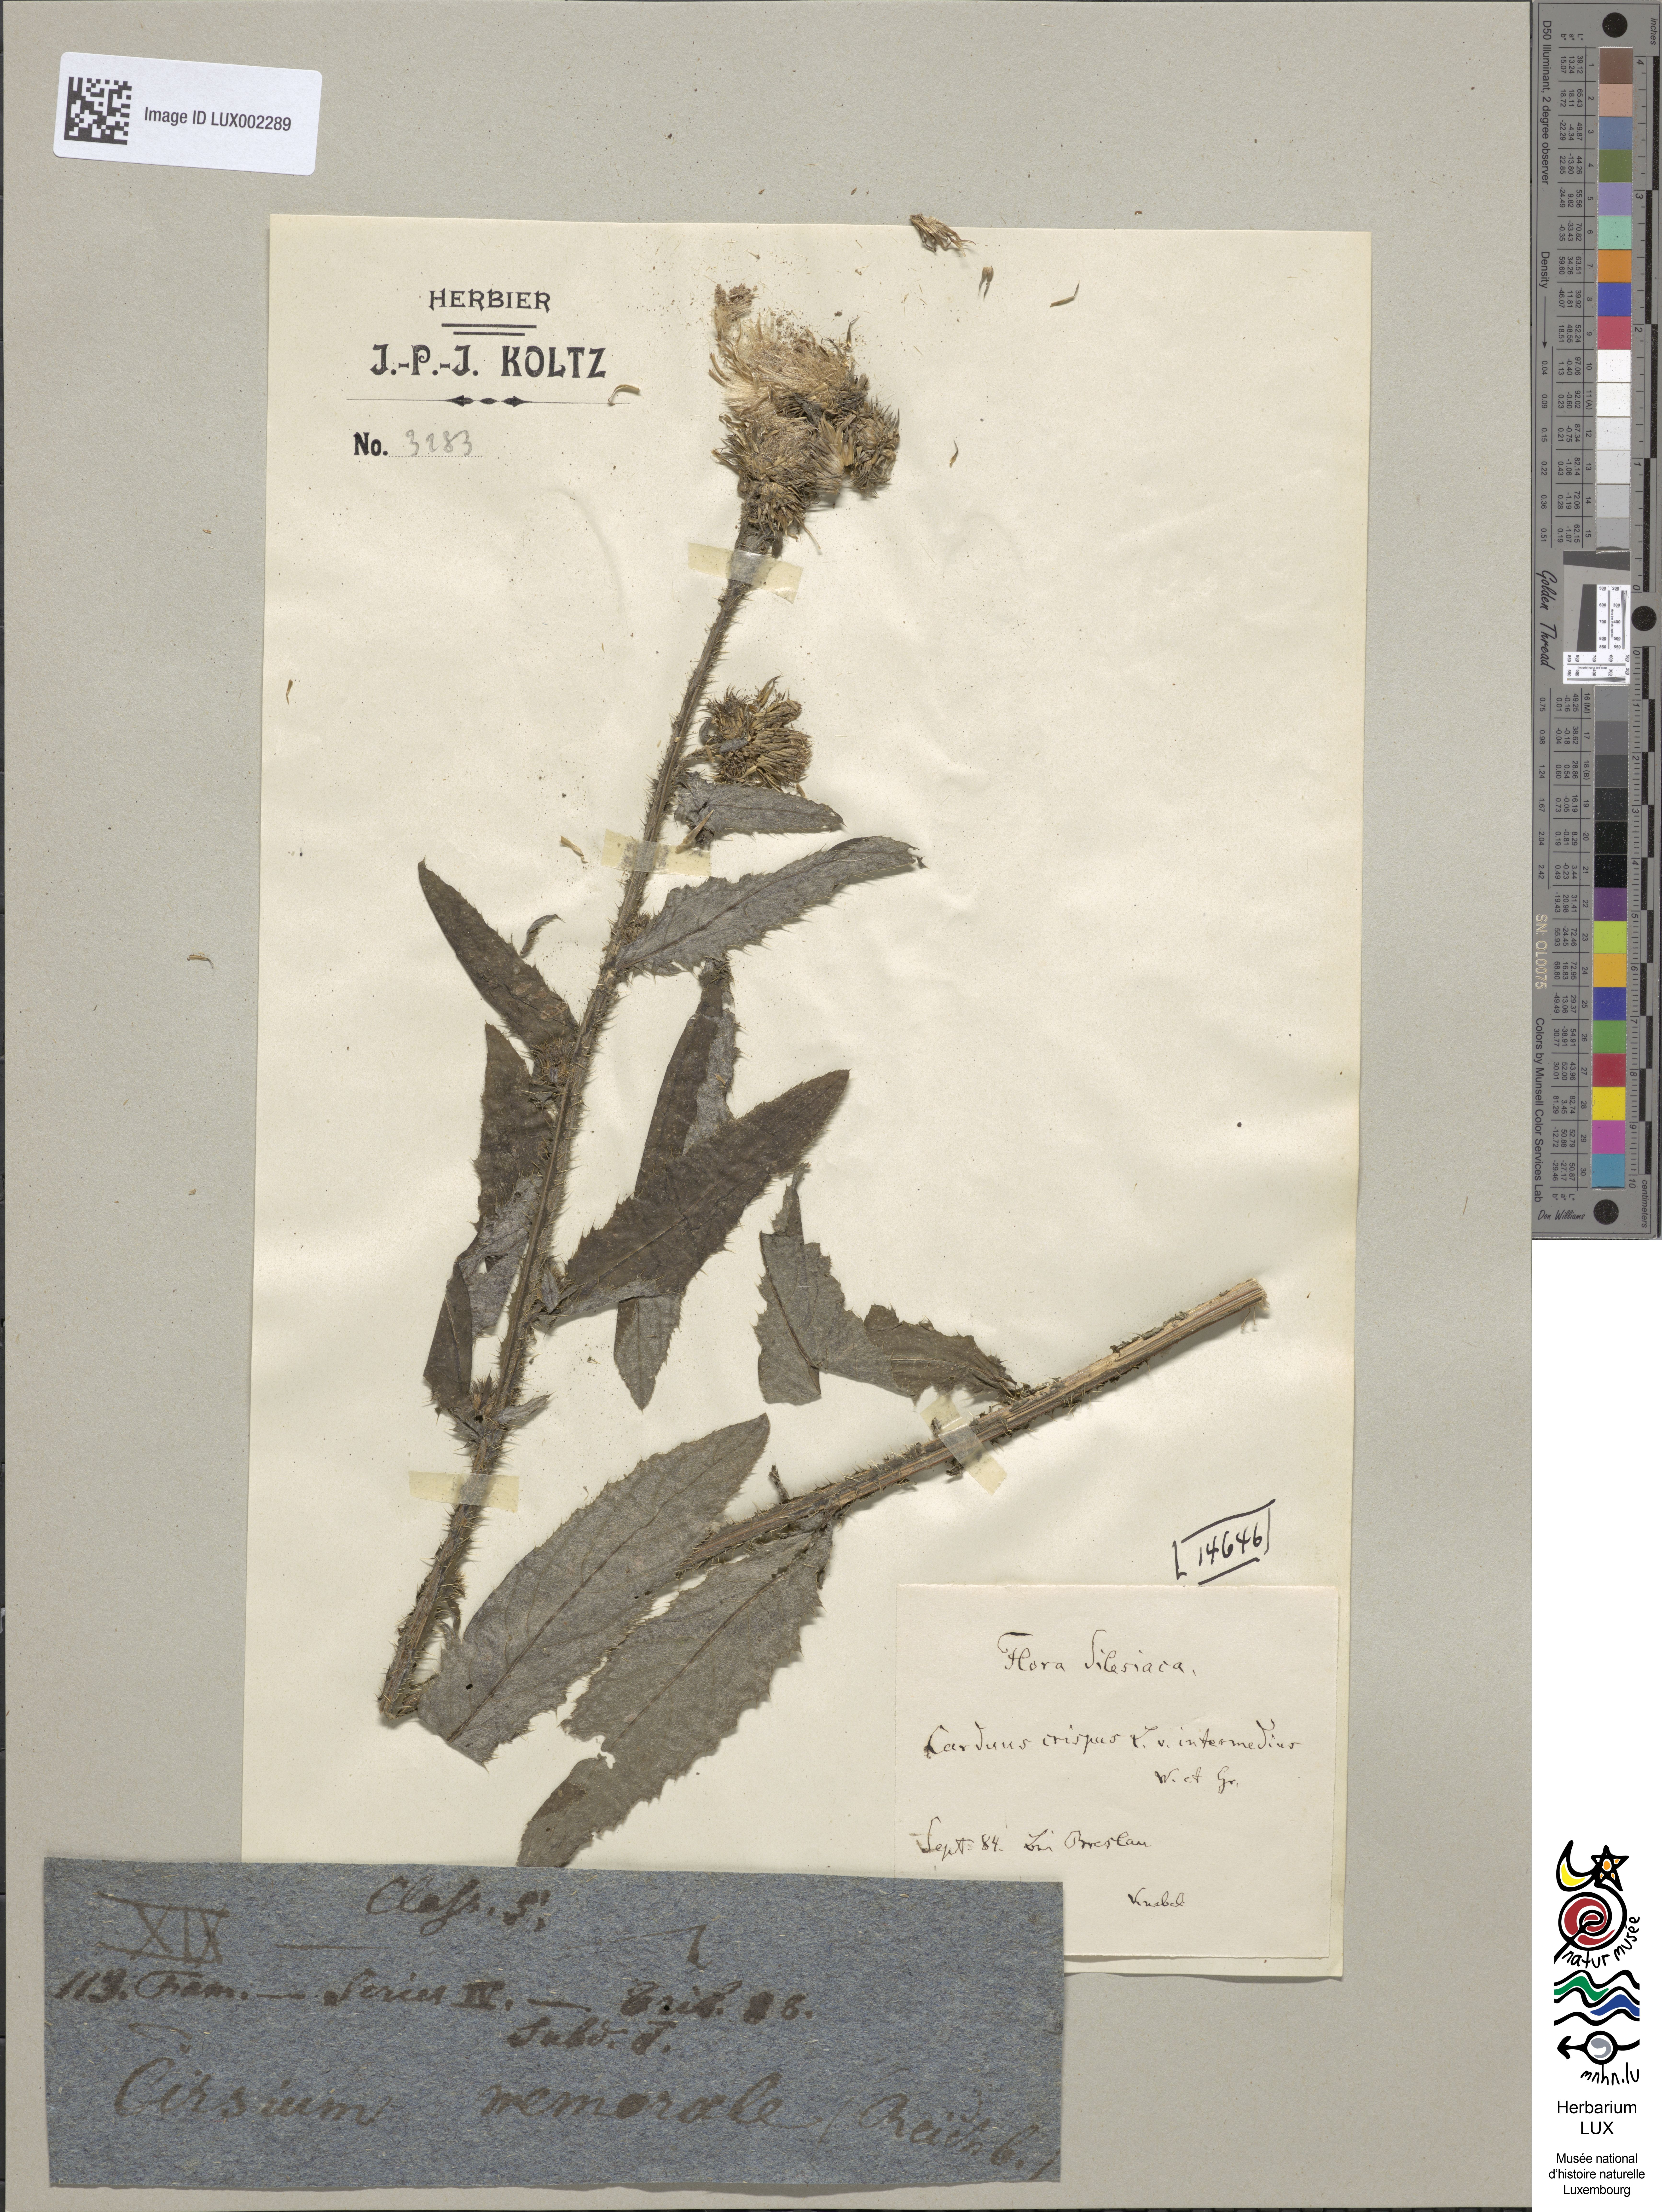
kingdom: Plantae
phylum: Tracheophyta
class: Magnoliopsida
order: Asterales
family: Asteraceae
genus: Carduus
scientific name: Carduus crispus
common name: Welted thistle
